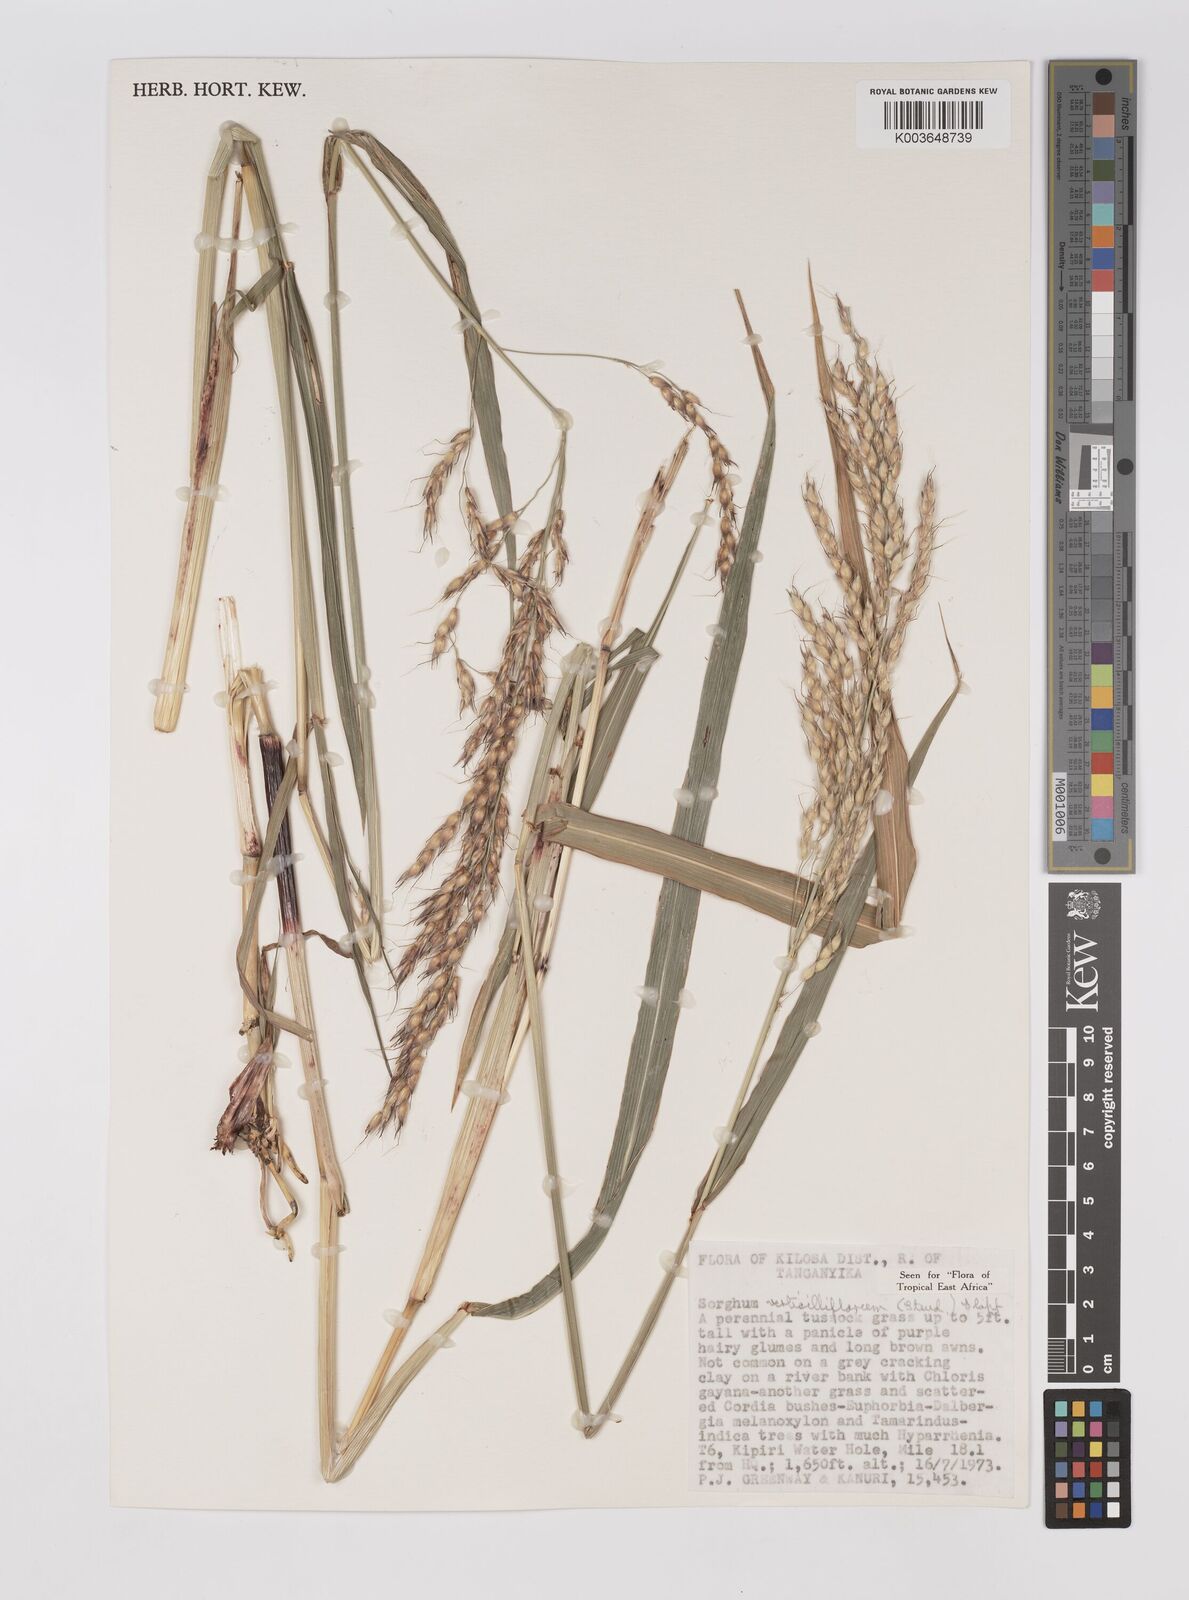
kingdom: Plantae
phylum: Tracheophyta
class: Liliopsida
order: Poales
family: Poaceae
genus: Sorghum
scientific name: Sorghum arundinaceum
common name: Sorghum
